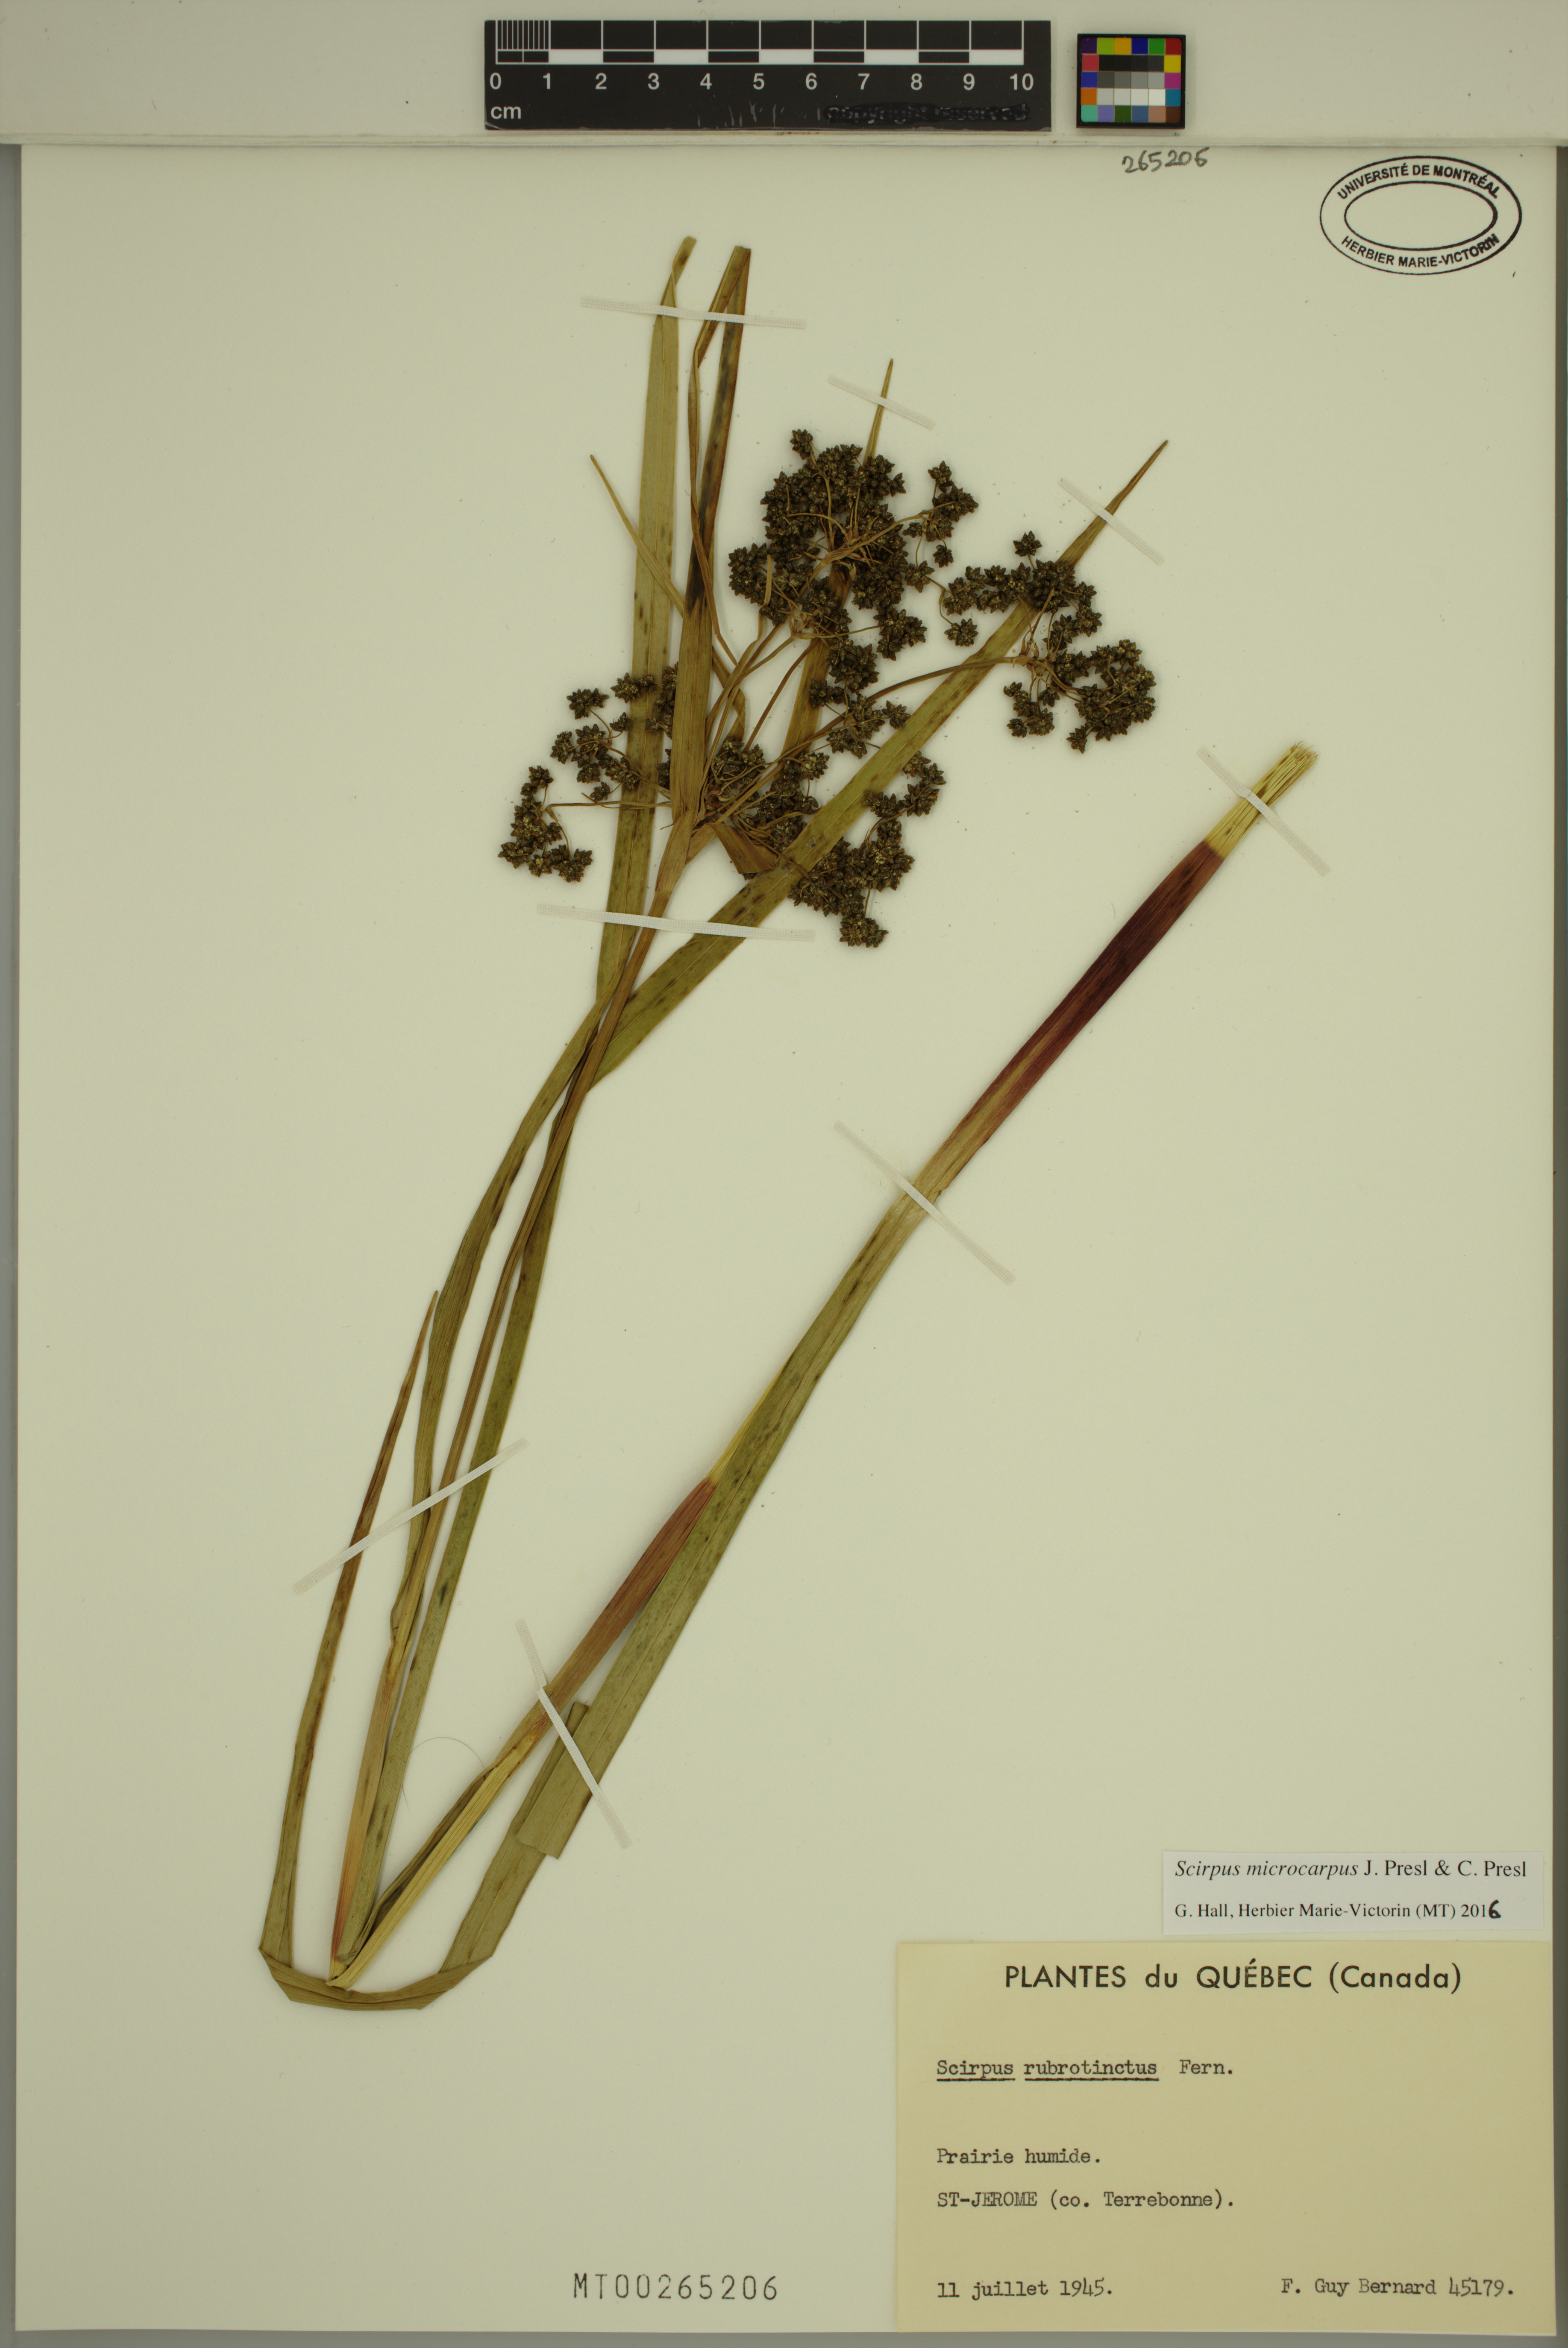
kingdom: Plantae
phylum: Tracheophyta
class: Liliopsida
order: Poales
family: Cyperaceae
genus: Scirpus
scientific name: Scirpus microcarpus
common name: Panicled bulrush
